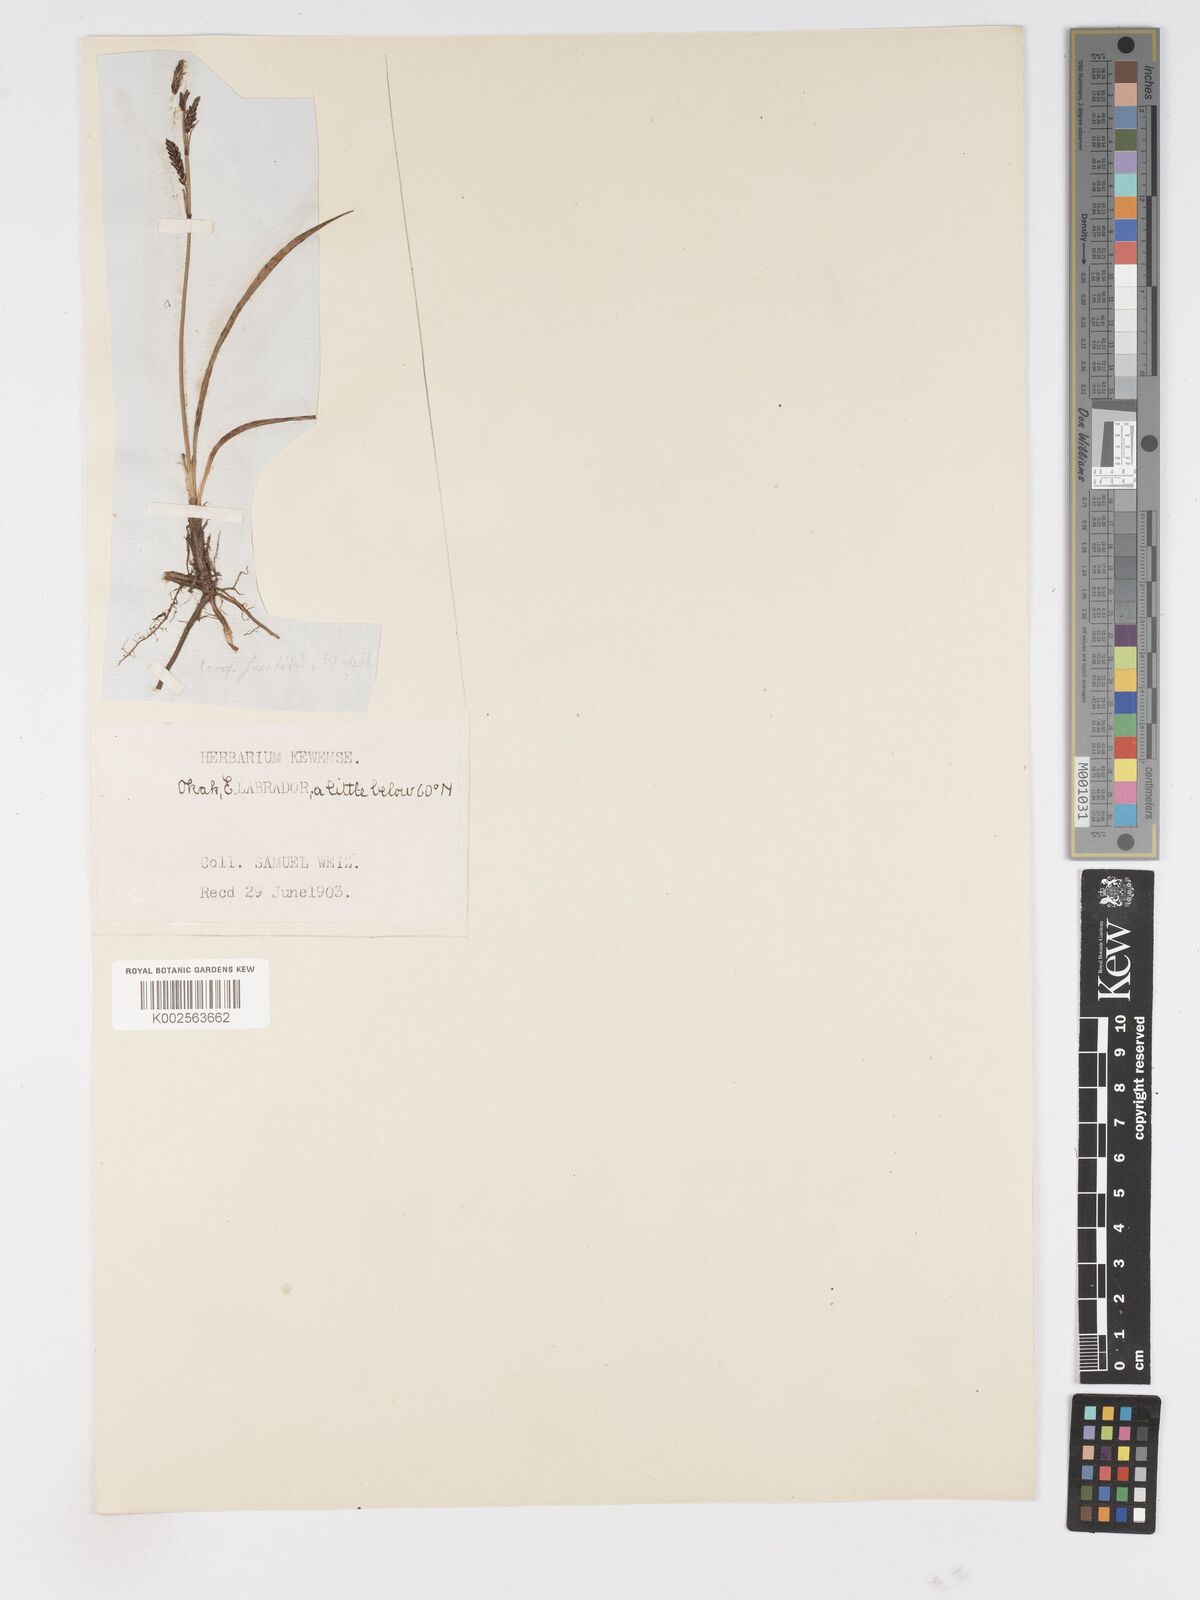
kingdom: Plantae
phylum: Tracheophyta
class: Liliopsida
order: Poales
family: Cyperaceae
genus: Carex
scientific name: Carex saxatilis
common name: Russet sedge
